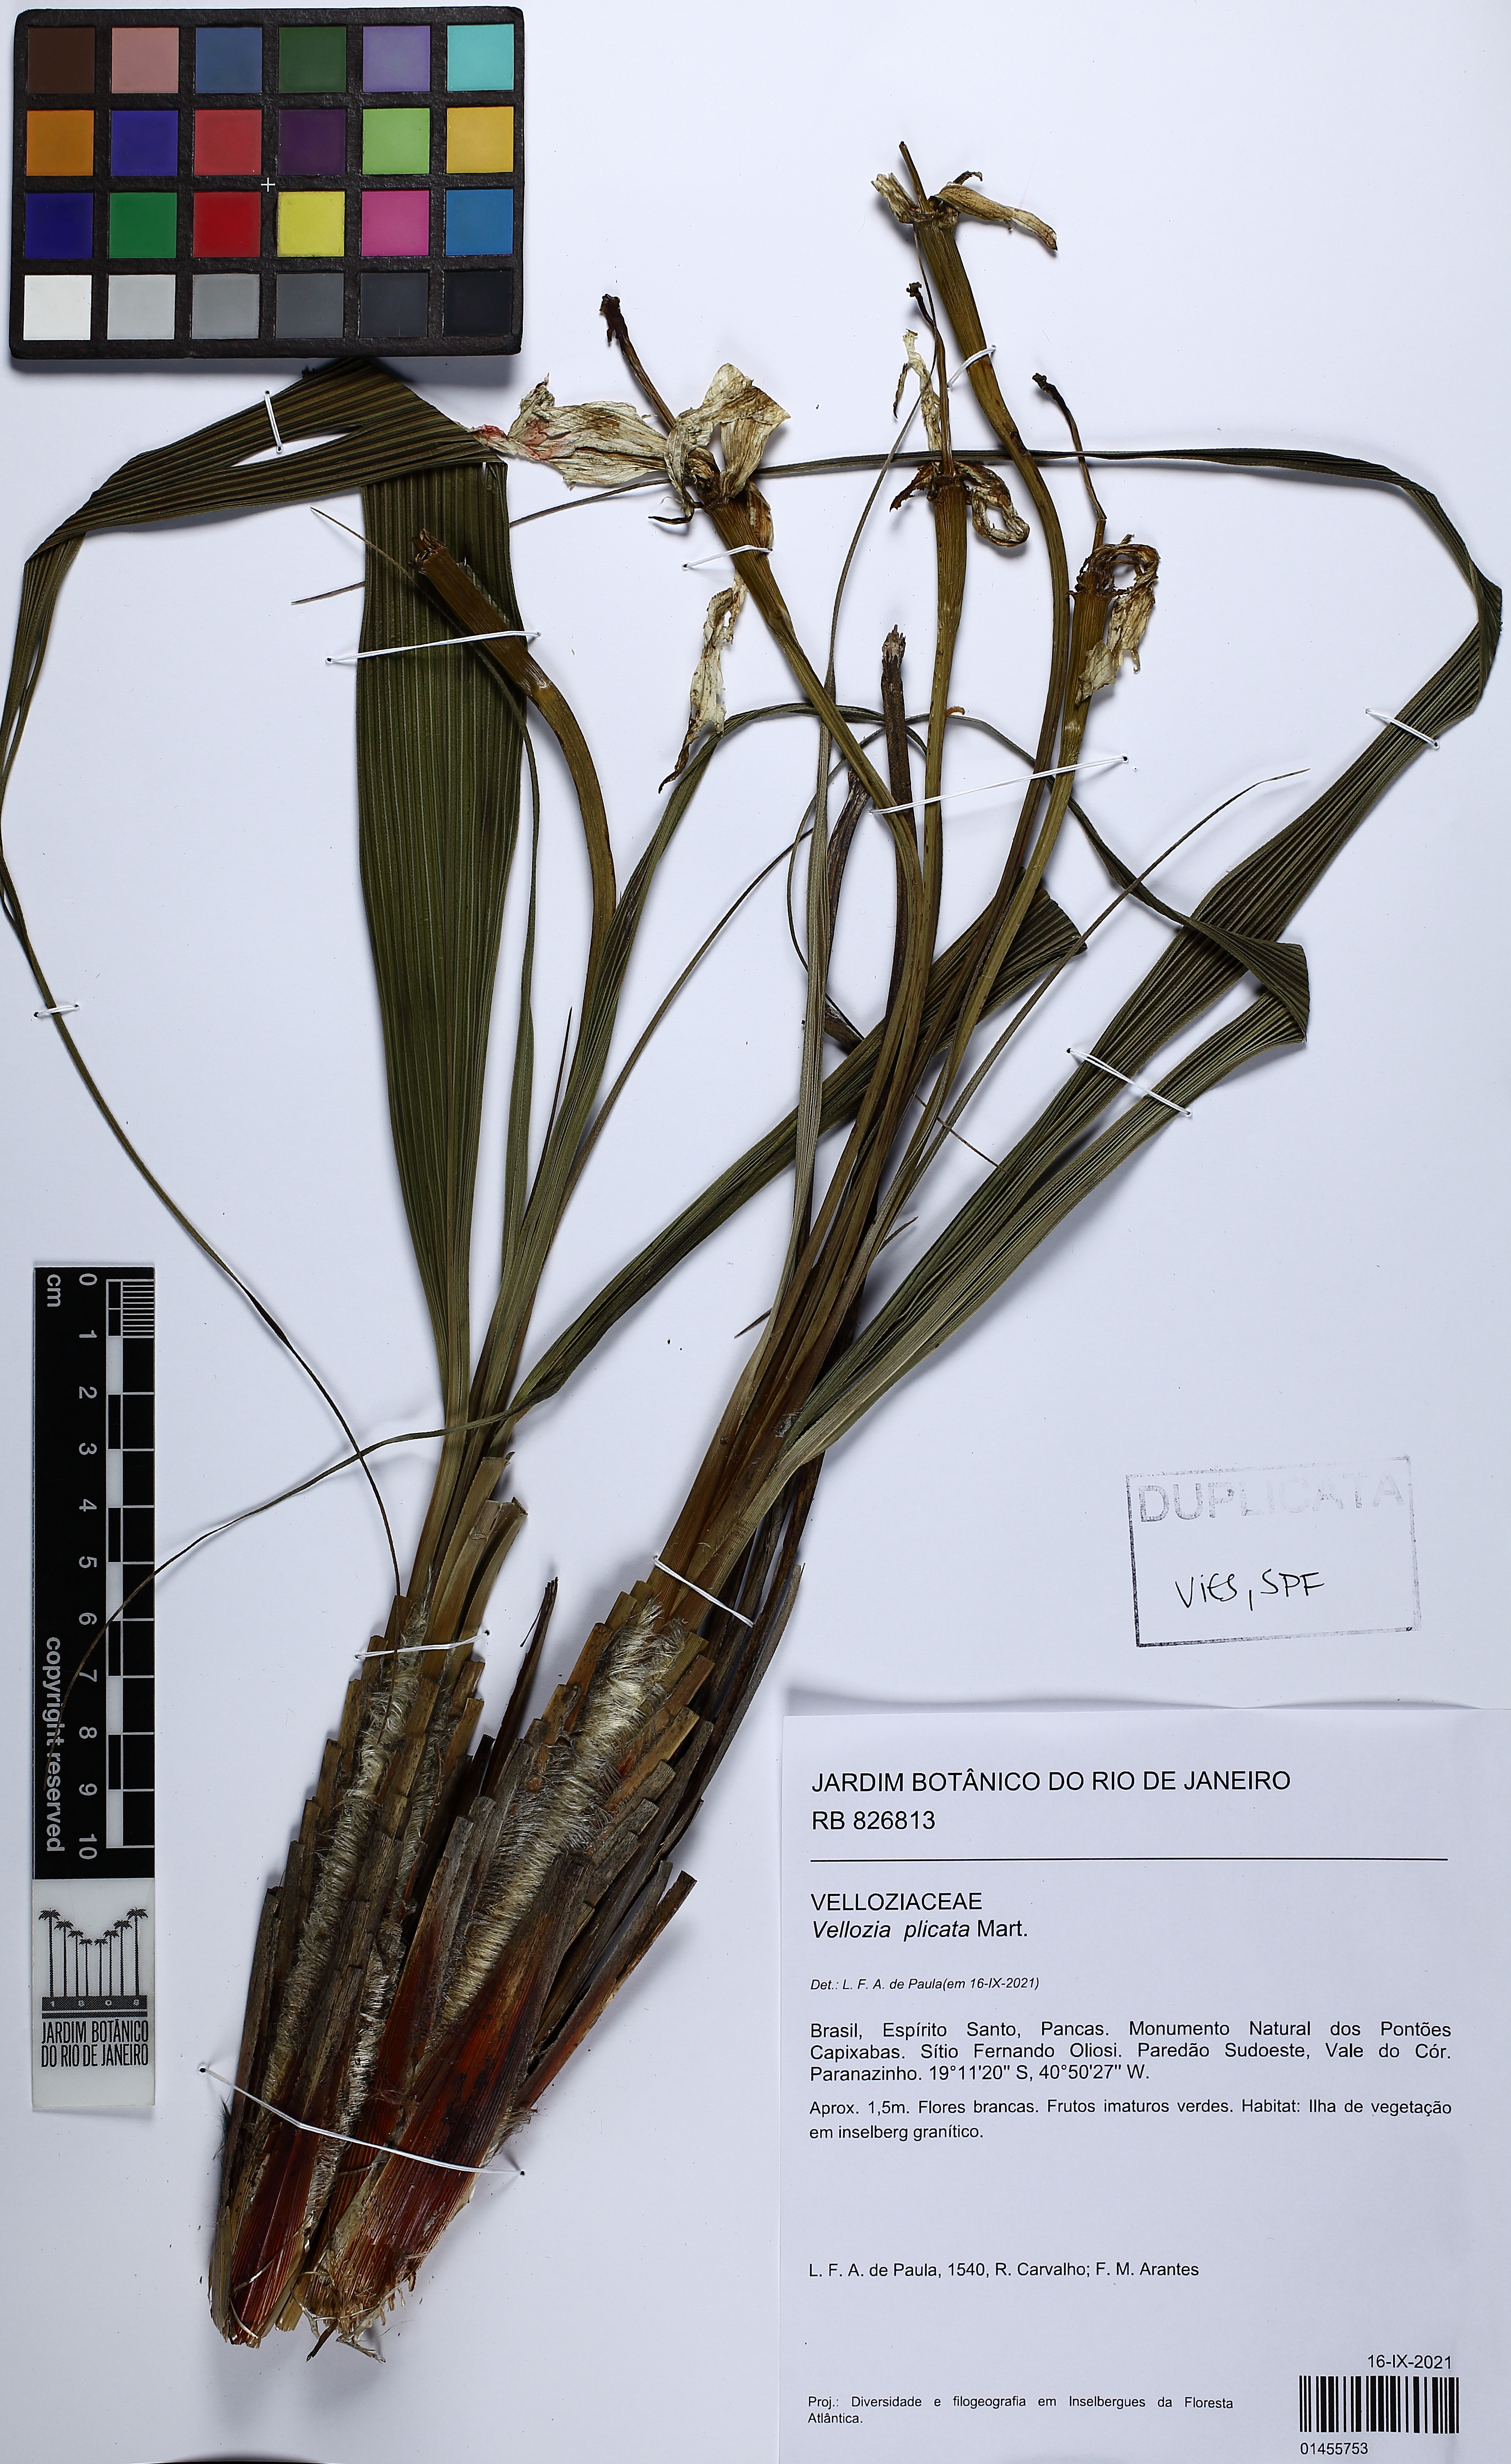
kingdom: Plantae
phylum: Tracheophyta
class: Liliopsida
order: Pandanales
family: Velloziaceae
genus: Nanuza
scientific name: Nanuza plicata
